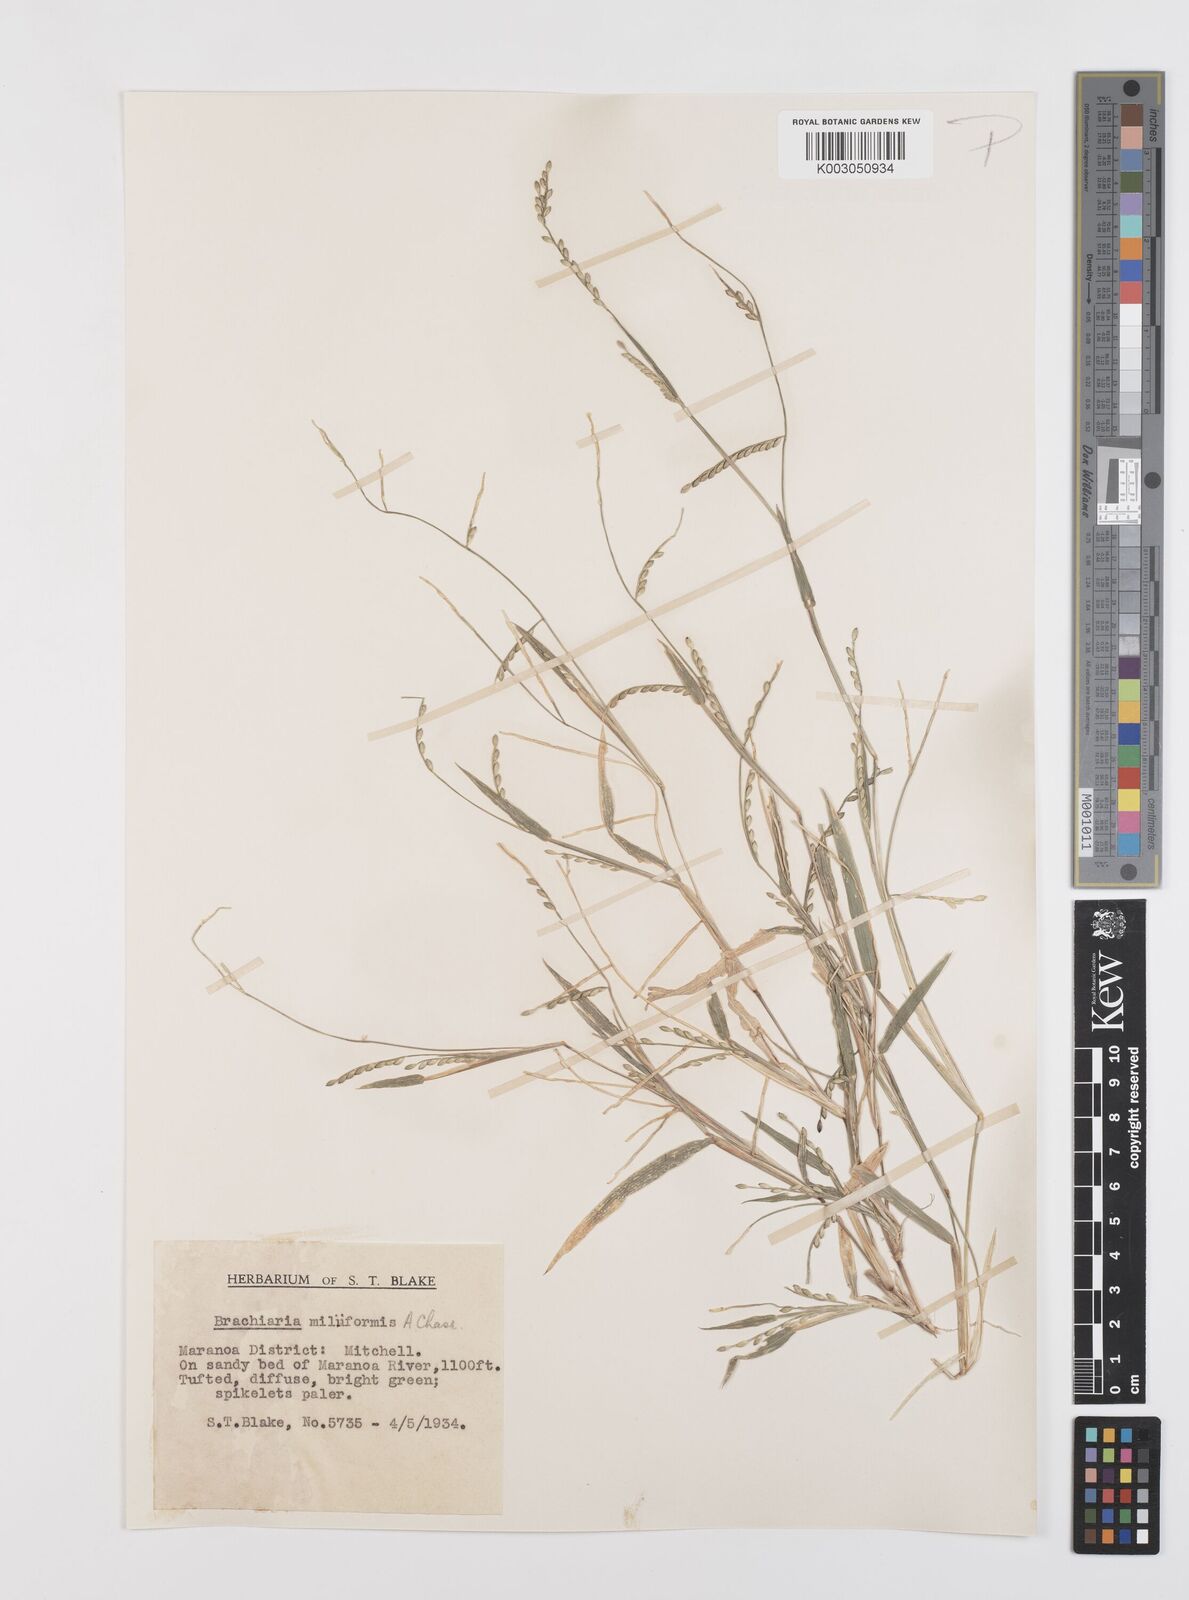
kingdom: Plantae
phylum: Tracheophyta
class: Liliopsida
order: Poales
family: Poaceae
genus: Urochloa
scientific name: Urochloa subquadripara
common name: Armgrass millet
